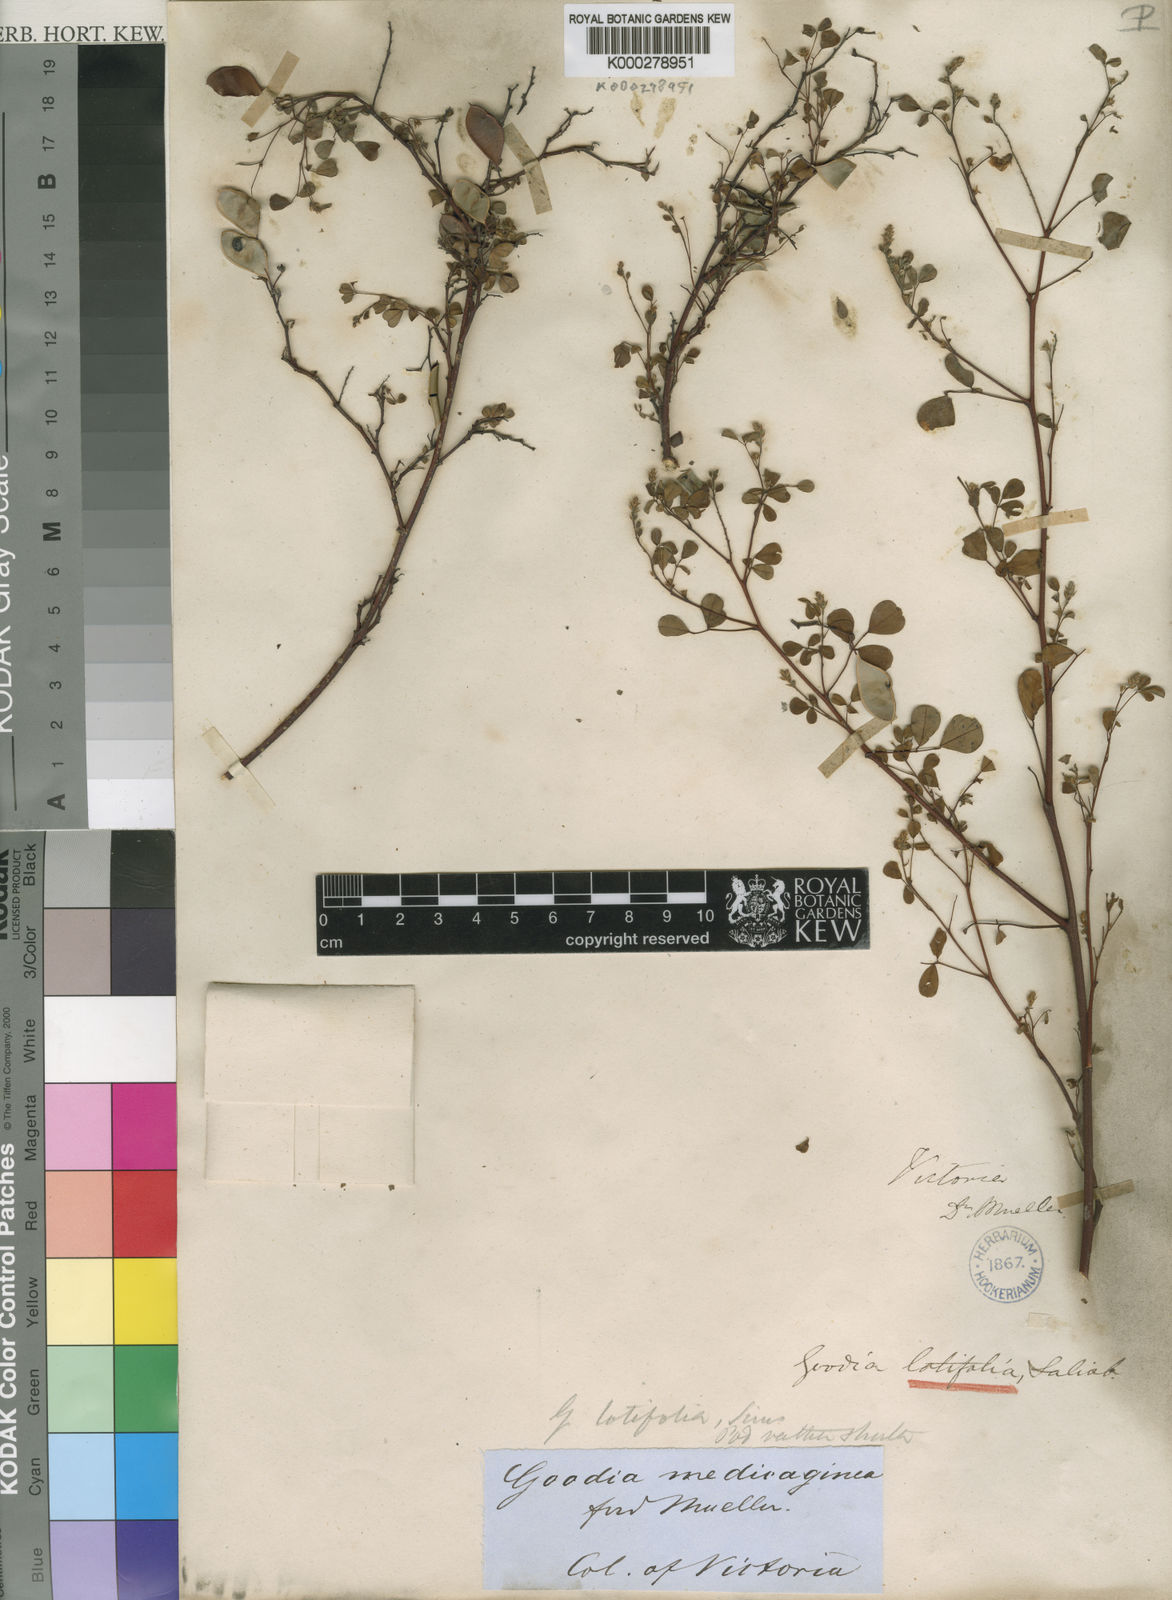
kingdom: Plantae
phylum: Tracheophyta
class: Magnoliopsida
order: Fabales
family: Fabaceae
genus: Goodia
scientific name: Goodia medicaginea
